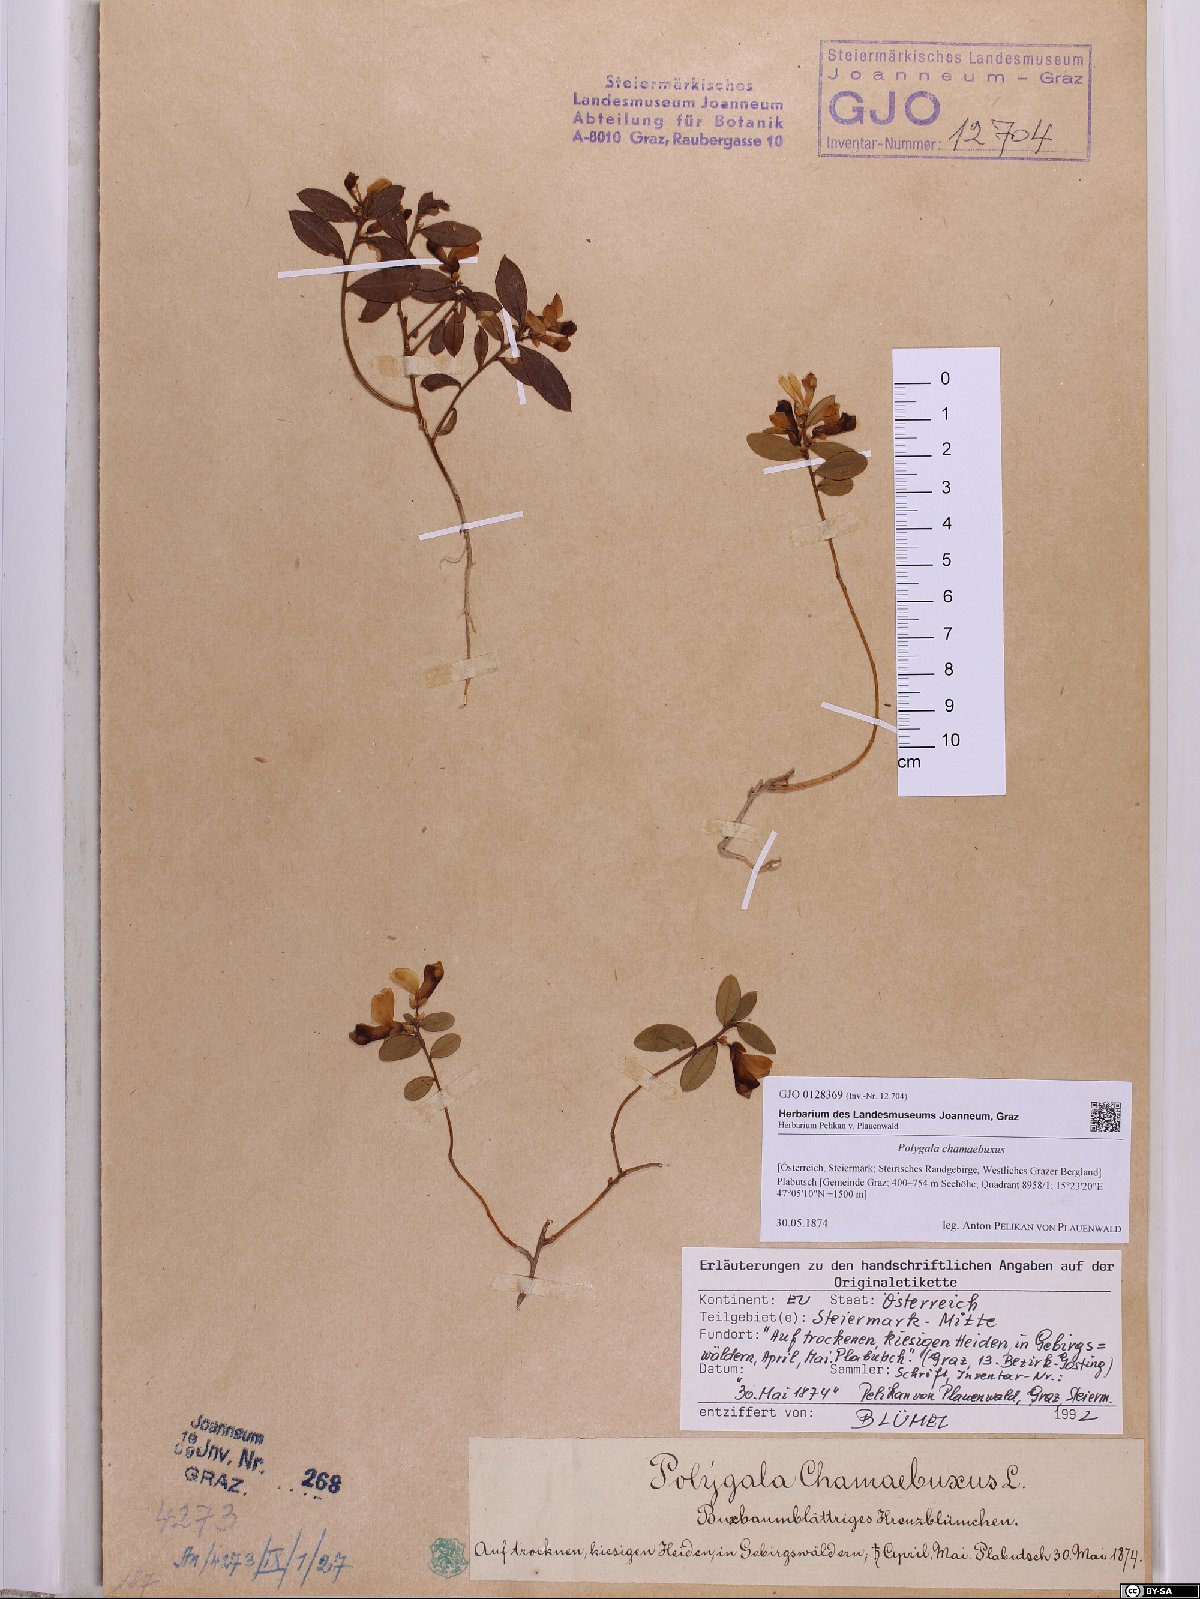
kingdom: Plantae
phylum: Tracheophyta
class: Magnoliopsida
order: Fabales
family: Polygalaceae
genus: Polygaloides
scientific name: Polygaloides chamaebuxus
